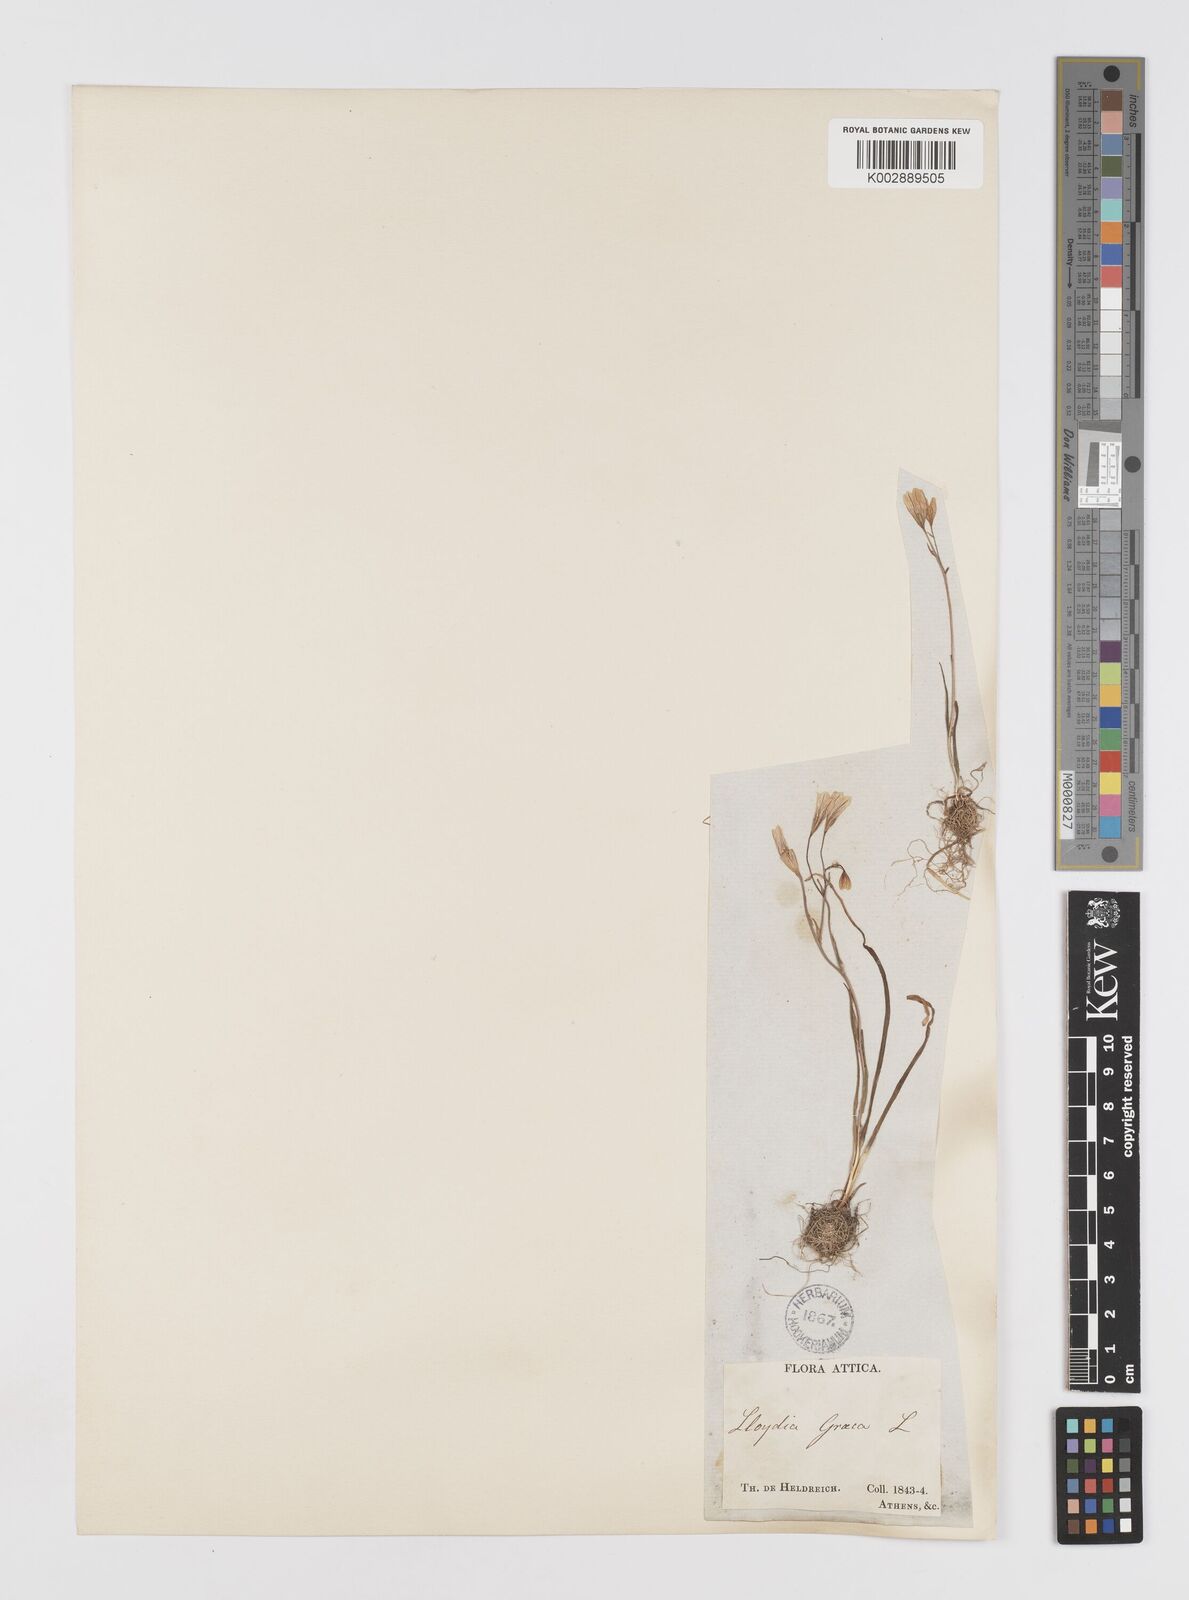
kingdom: Plantae
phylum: Tracheophyta
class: Liliopsida
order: Liliales
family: Liliaceae
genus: Gagea
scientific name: Gagea graeca
